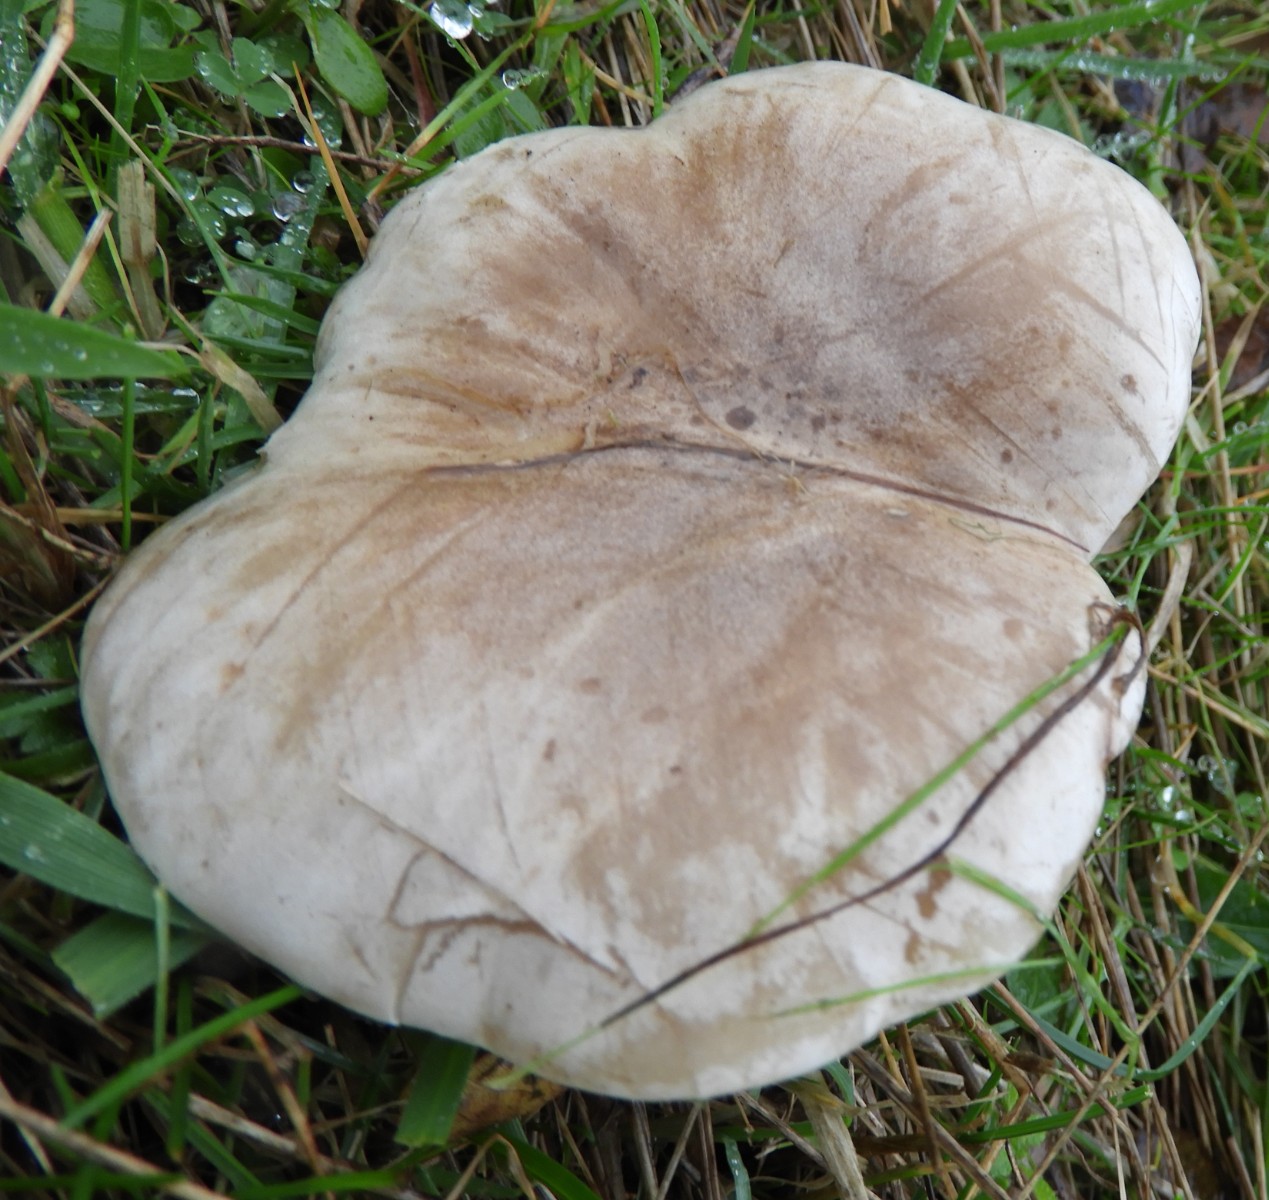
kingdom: Fungi
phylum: Basidiomycota
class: Agaricomycetes
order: Agaricales
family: Tricholomataceae
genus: Lepista
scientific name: Lepista panaeolus
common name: marmoreret hekseringshat
